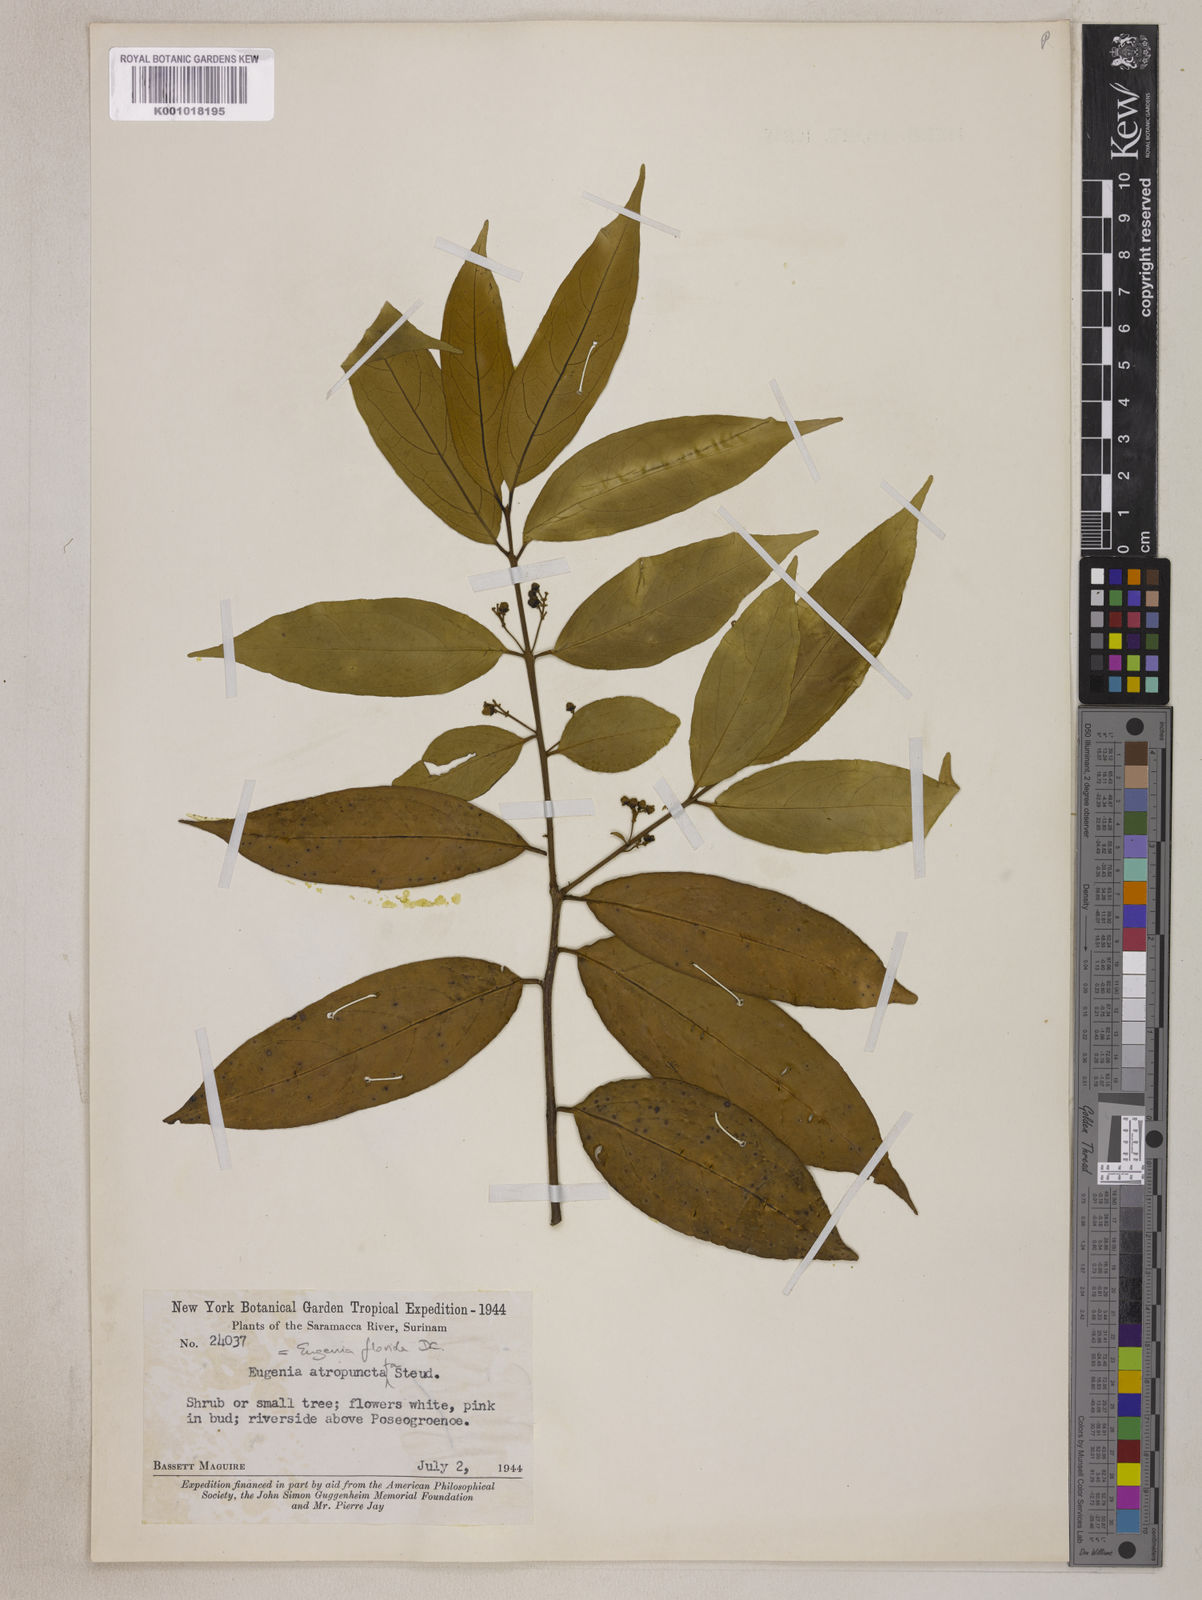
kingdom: Plantae
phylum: Tracheophyta
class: Magnoliopsida
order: Myrtales
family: Myrtaceae
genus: Eugenia
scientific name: Eugenia florida
